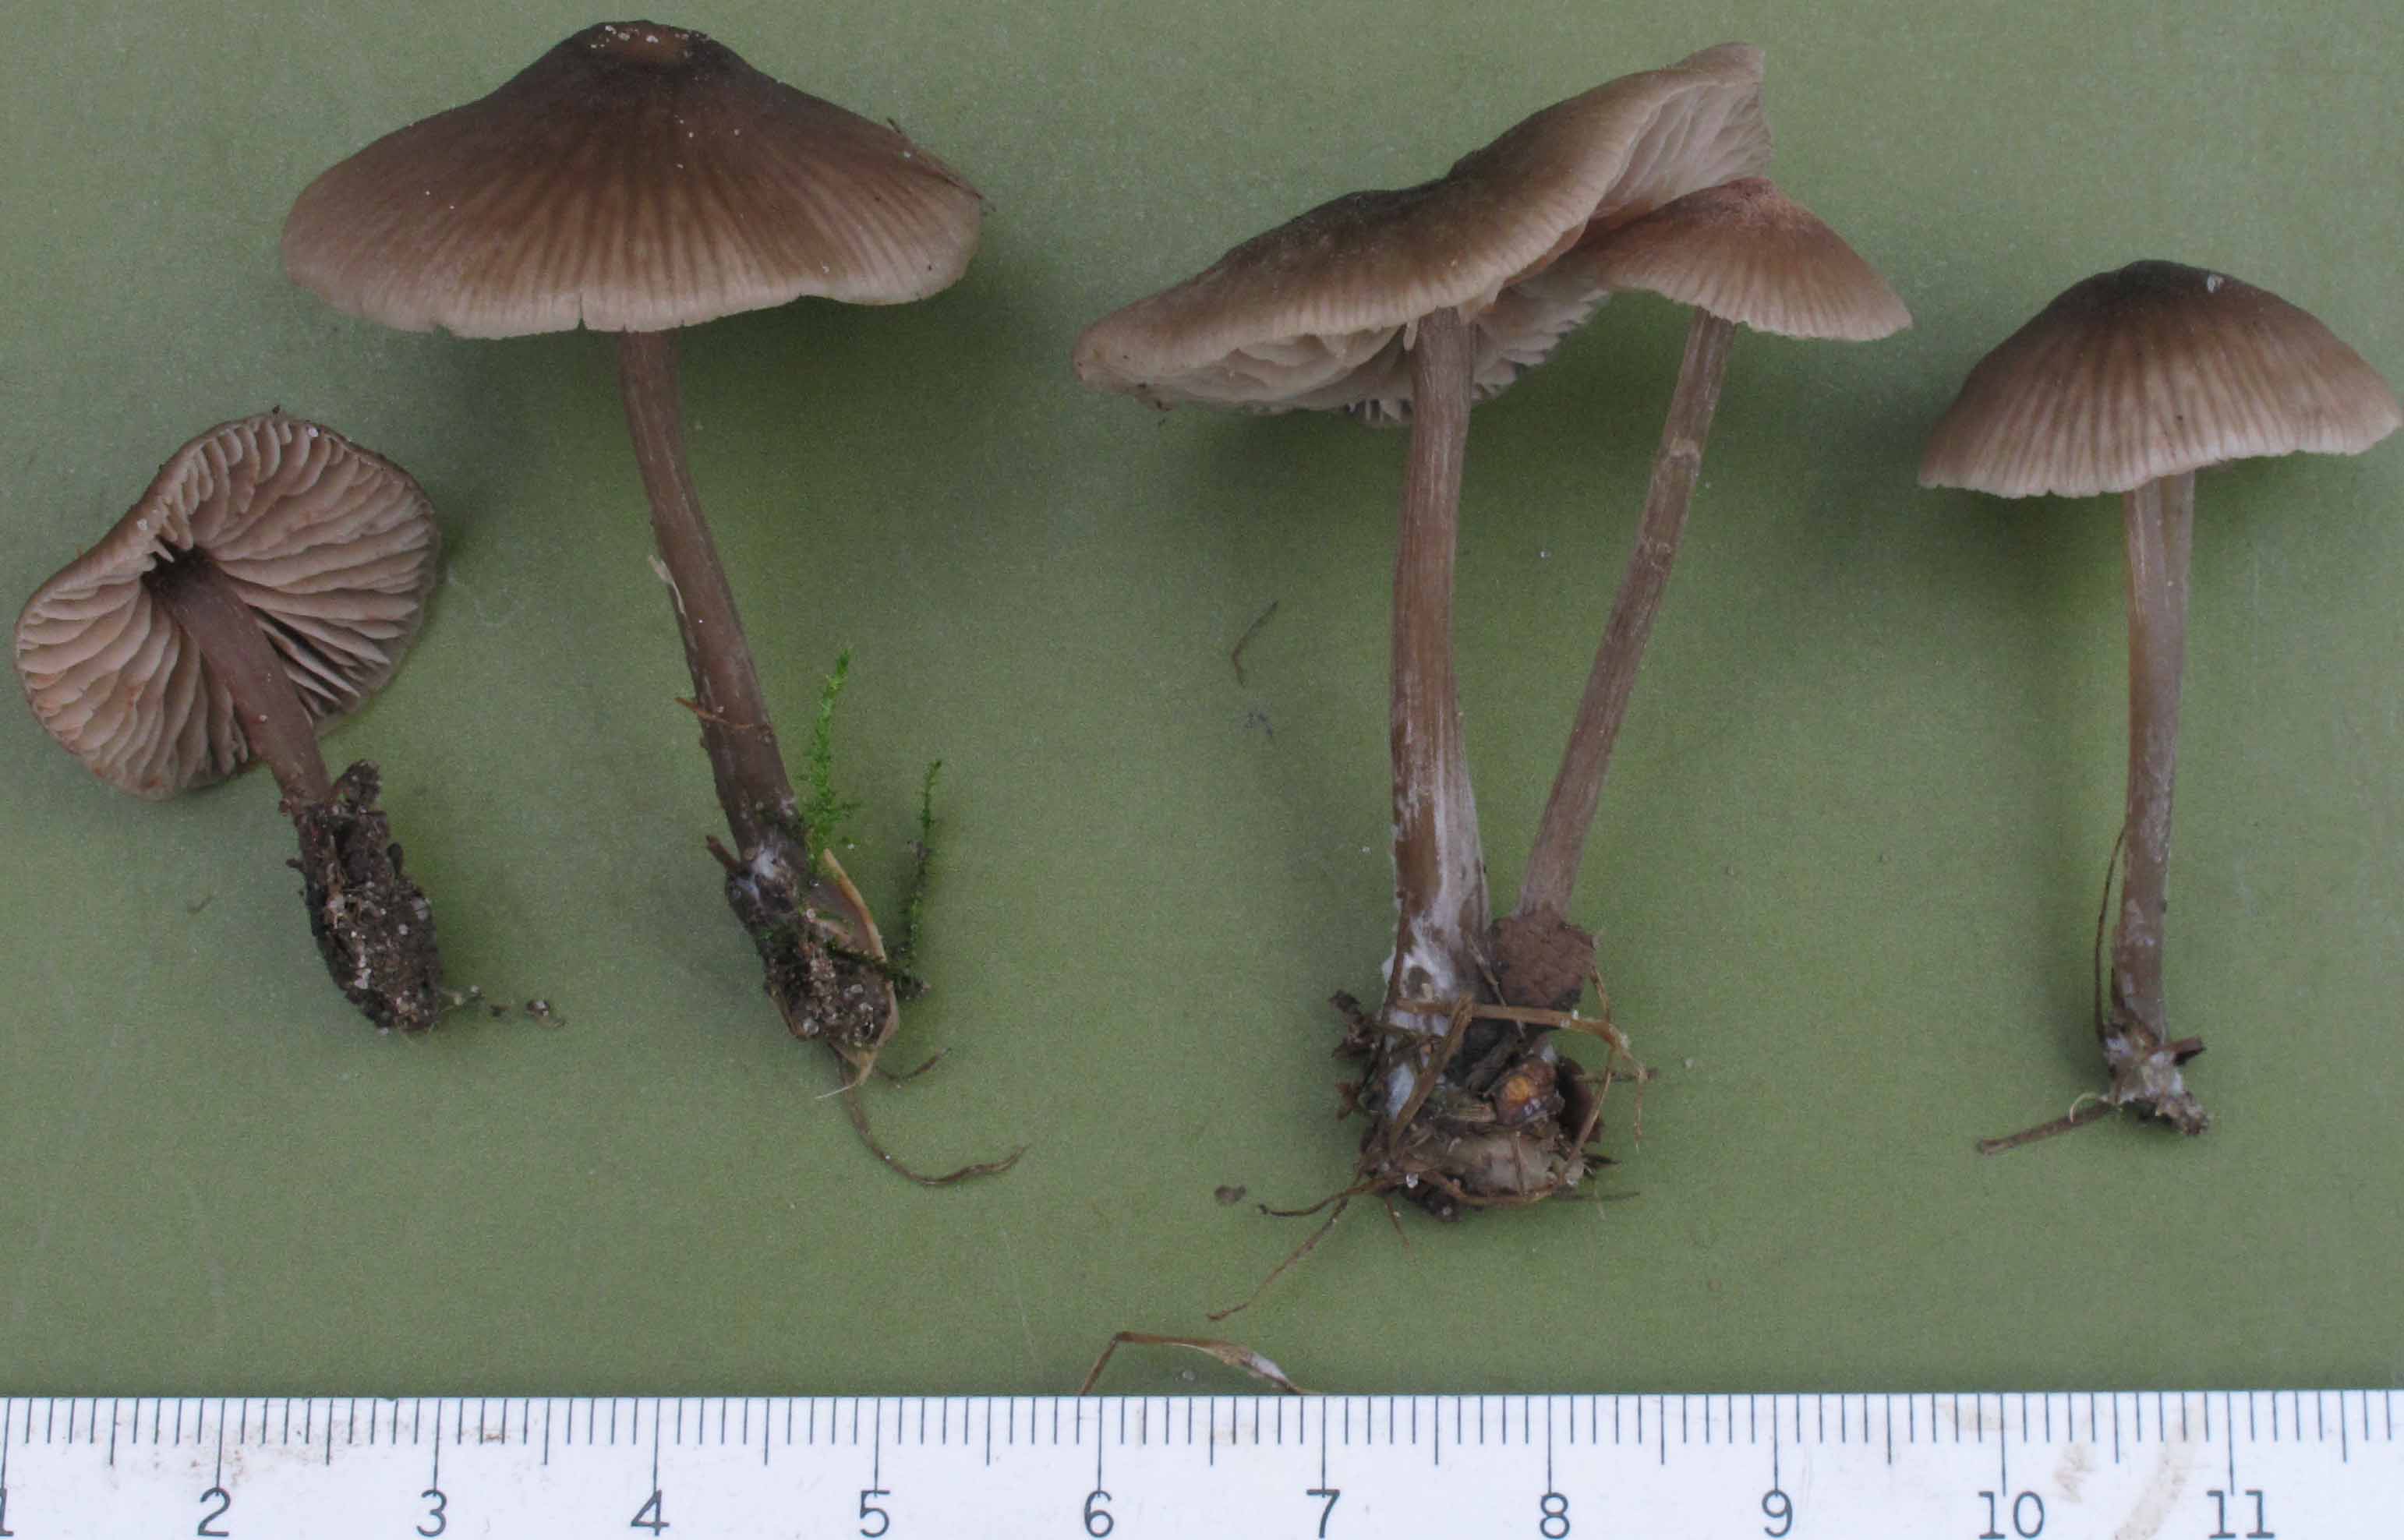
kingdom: Fungi
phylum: Basidiomycota
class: Agaricomycetes
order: Agaricales
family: Entolomataceae
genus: Entoloma
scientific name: Entoloma minutum
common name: liden rødblad
